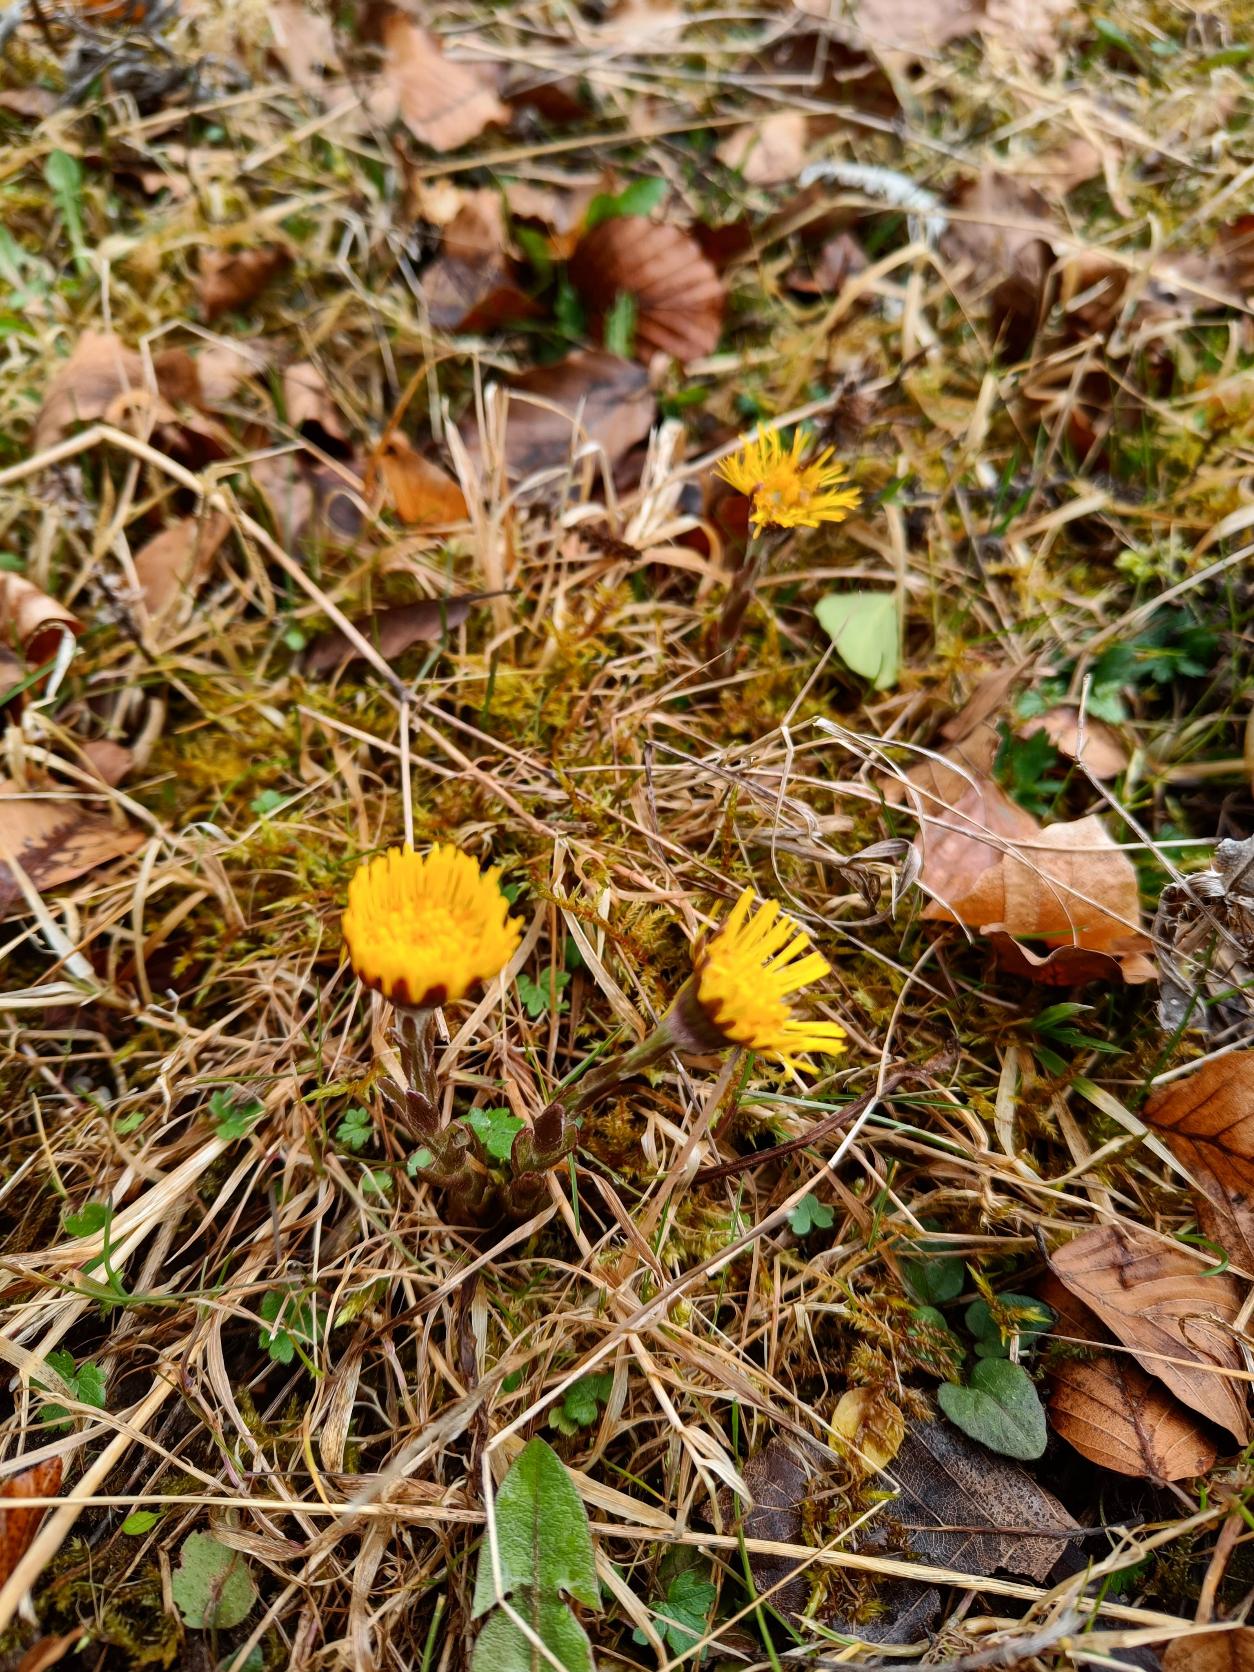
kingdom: Plantae
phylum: Tracheophyta
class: Magnoliopsida
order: Asterales
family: Asteraceae
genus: Tussilago
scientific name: Tussilago farfara
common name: Følfod
